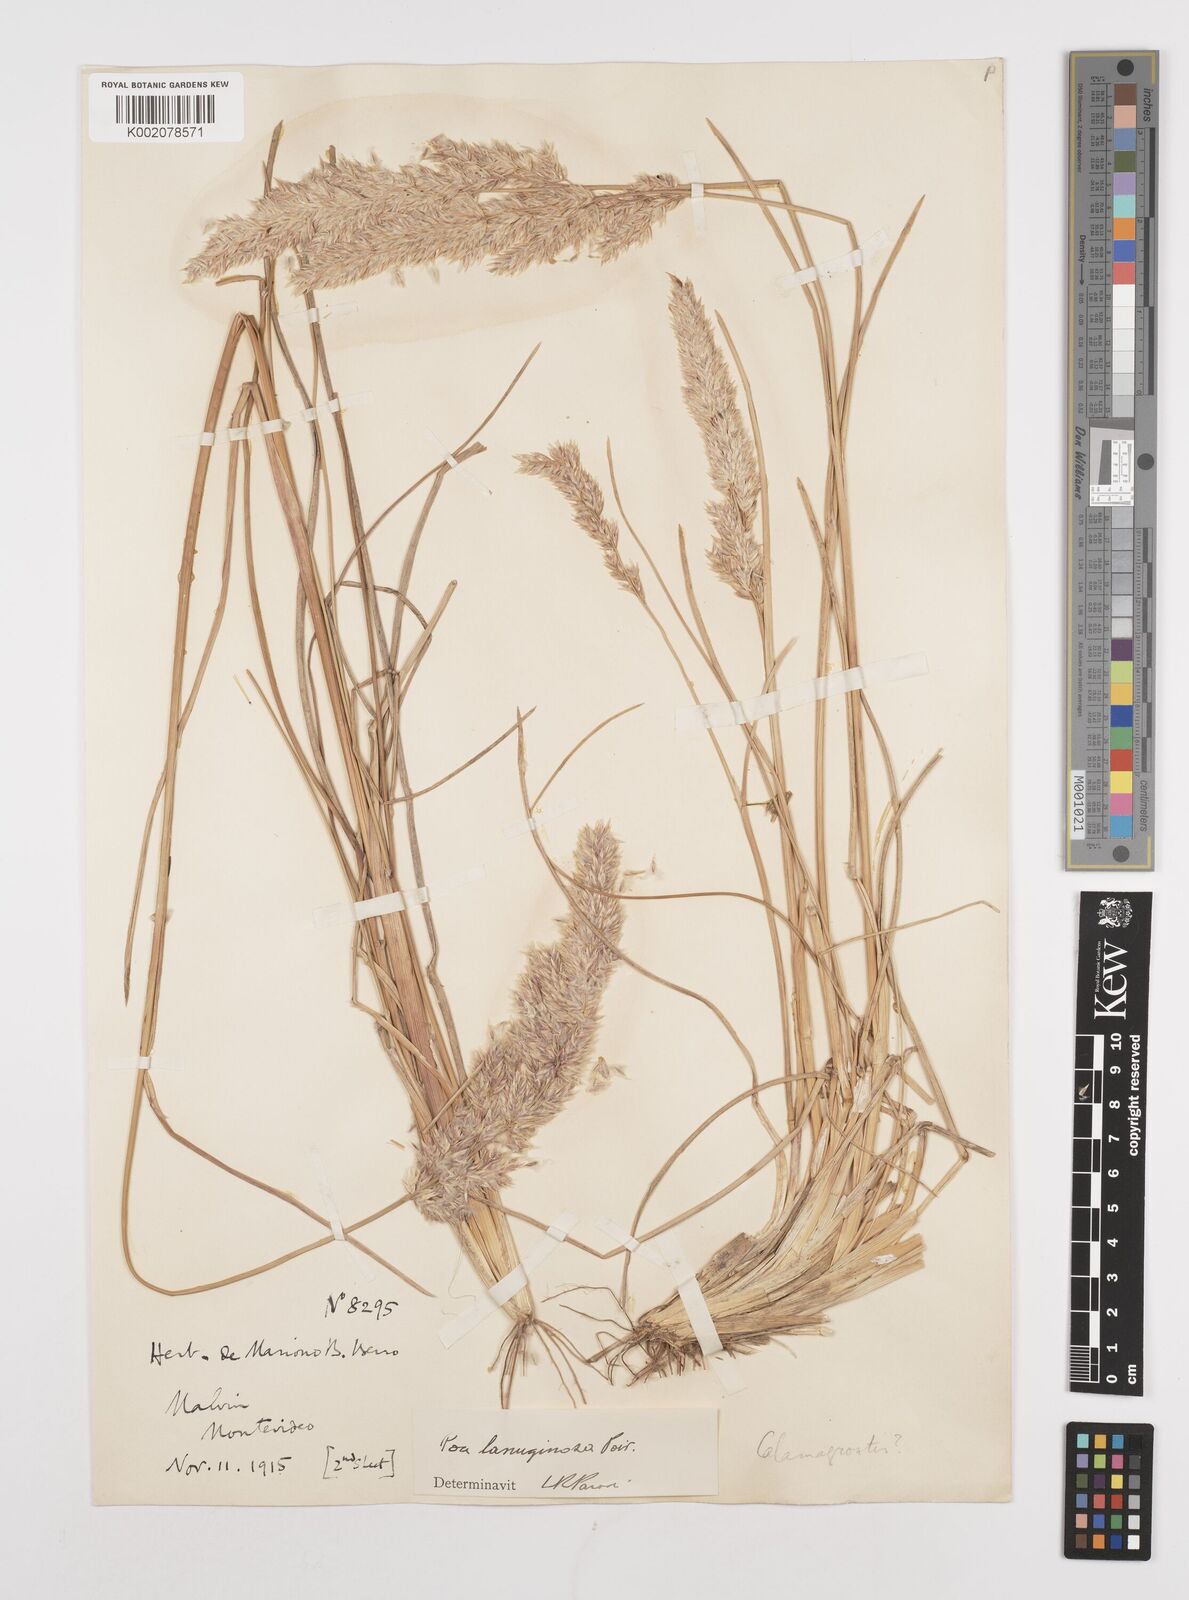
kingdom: Plantae
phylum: Tracheophyta
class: Liliopsida
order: Poales
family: Poaceae
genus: Poa
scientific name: Poa lanuginosa
